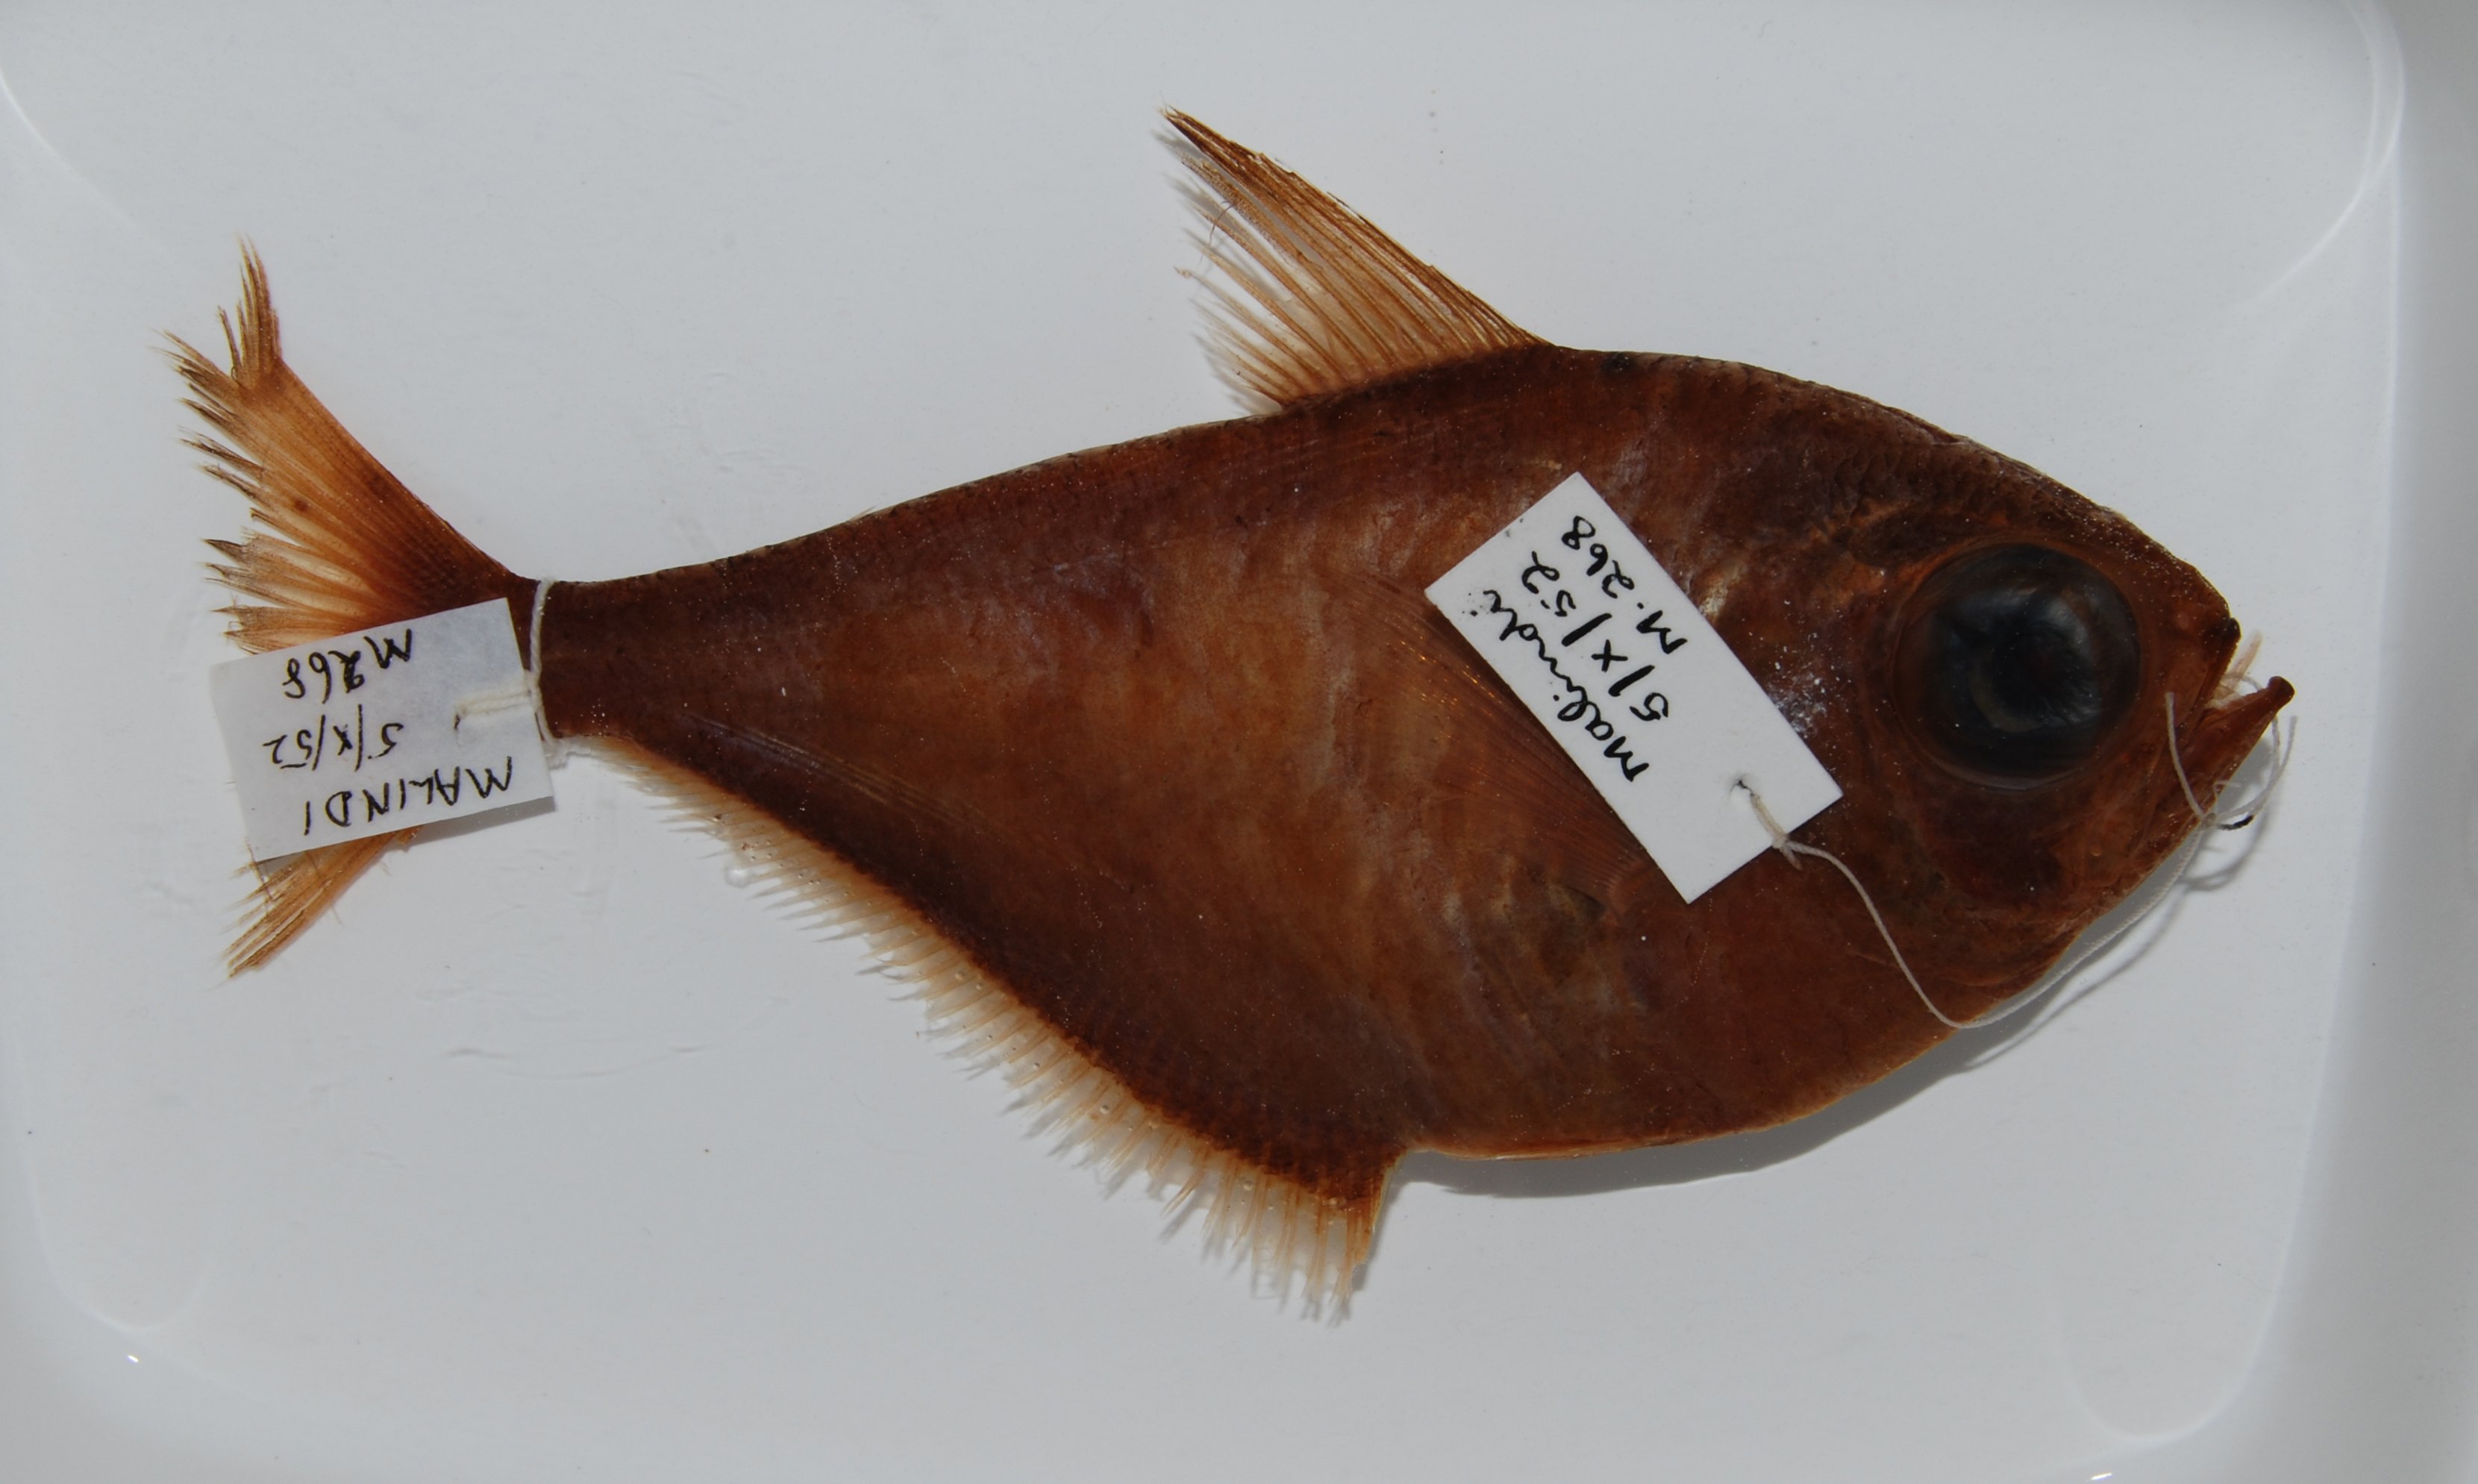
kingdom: Animalia
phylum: Chordata
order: Perciformes
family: Pempheridae
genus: Pempheris
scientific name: Pempheris
